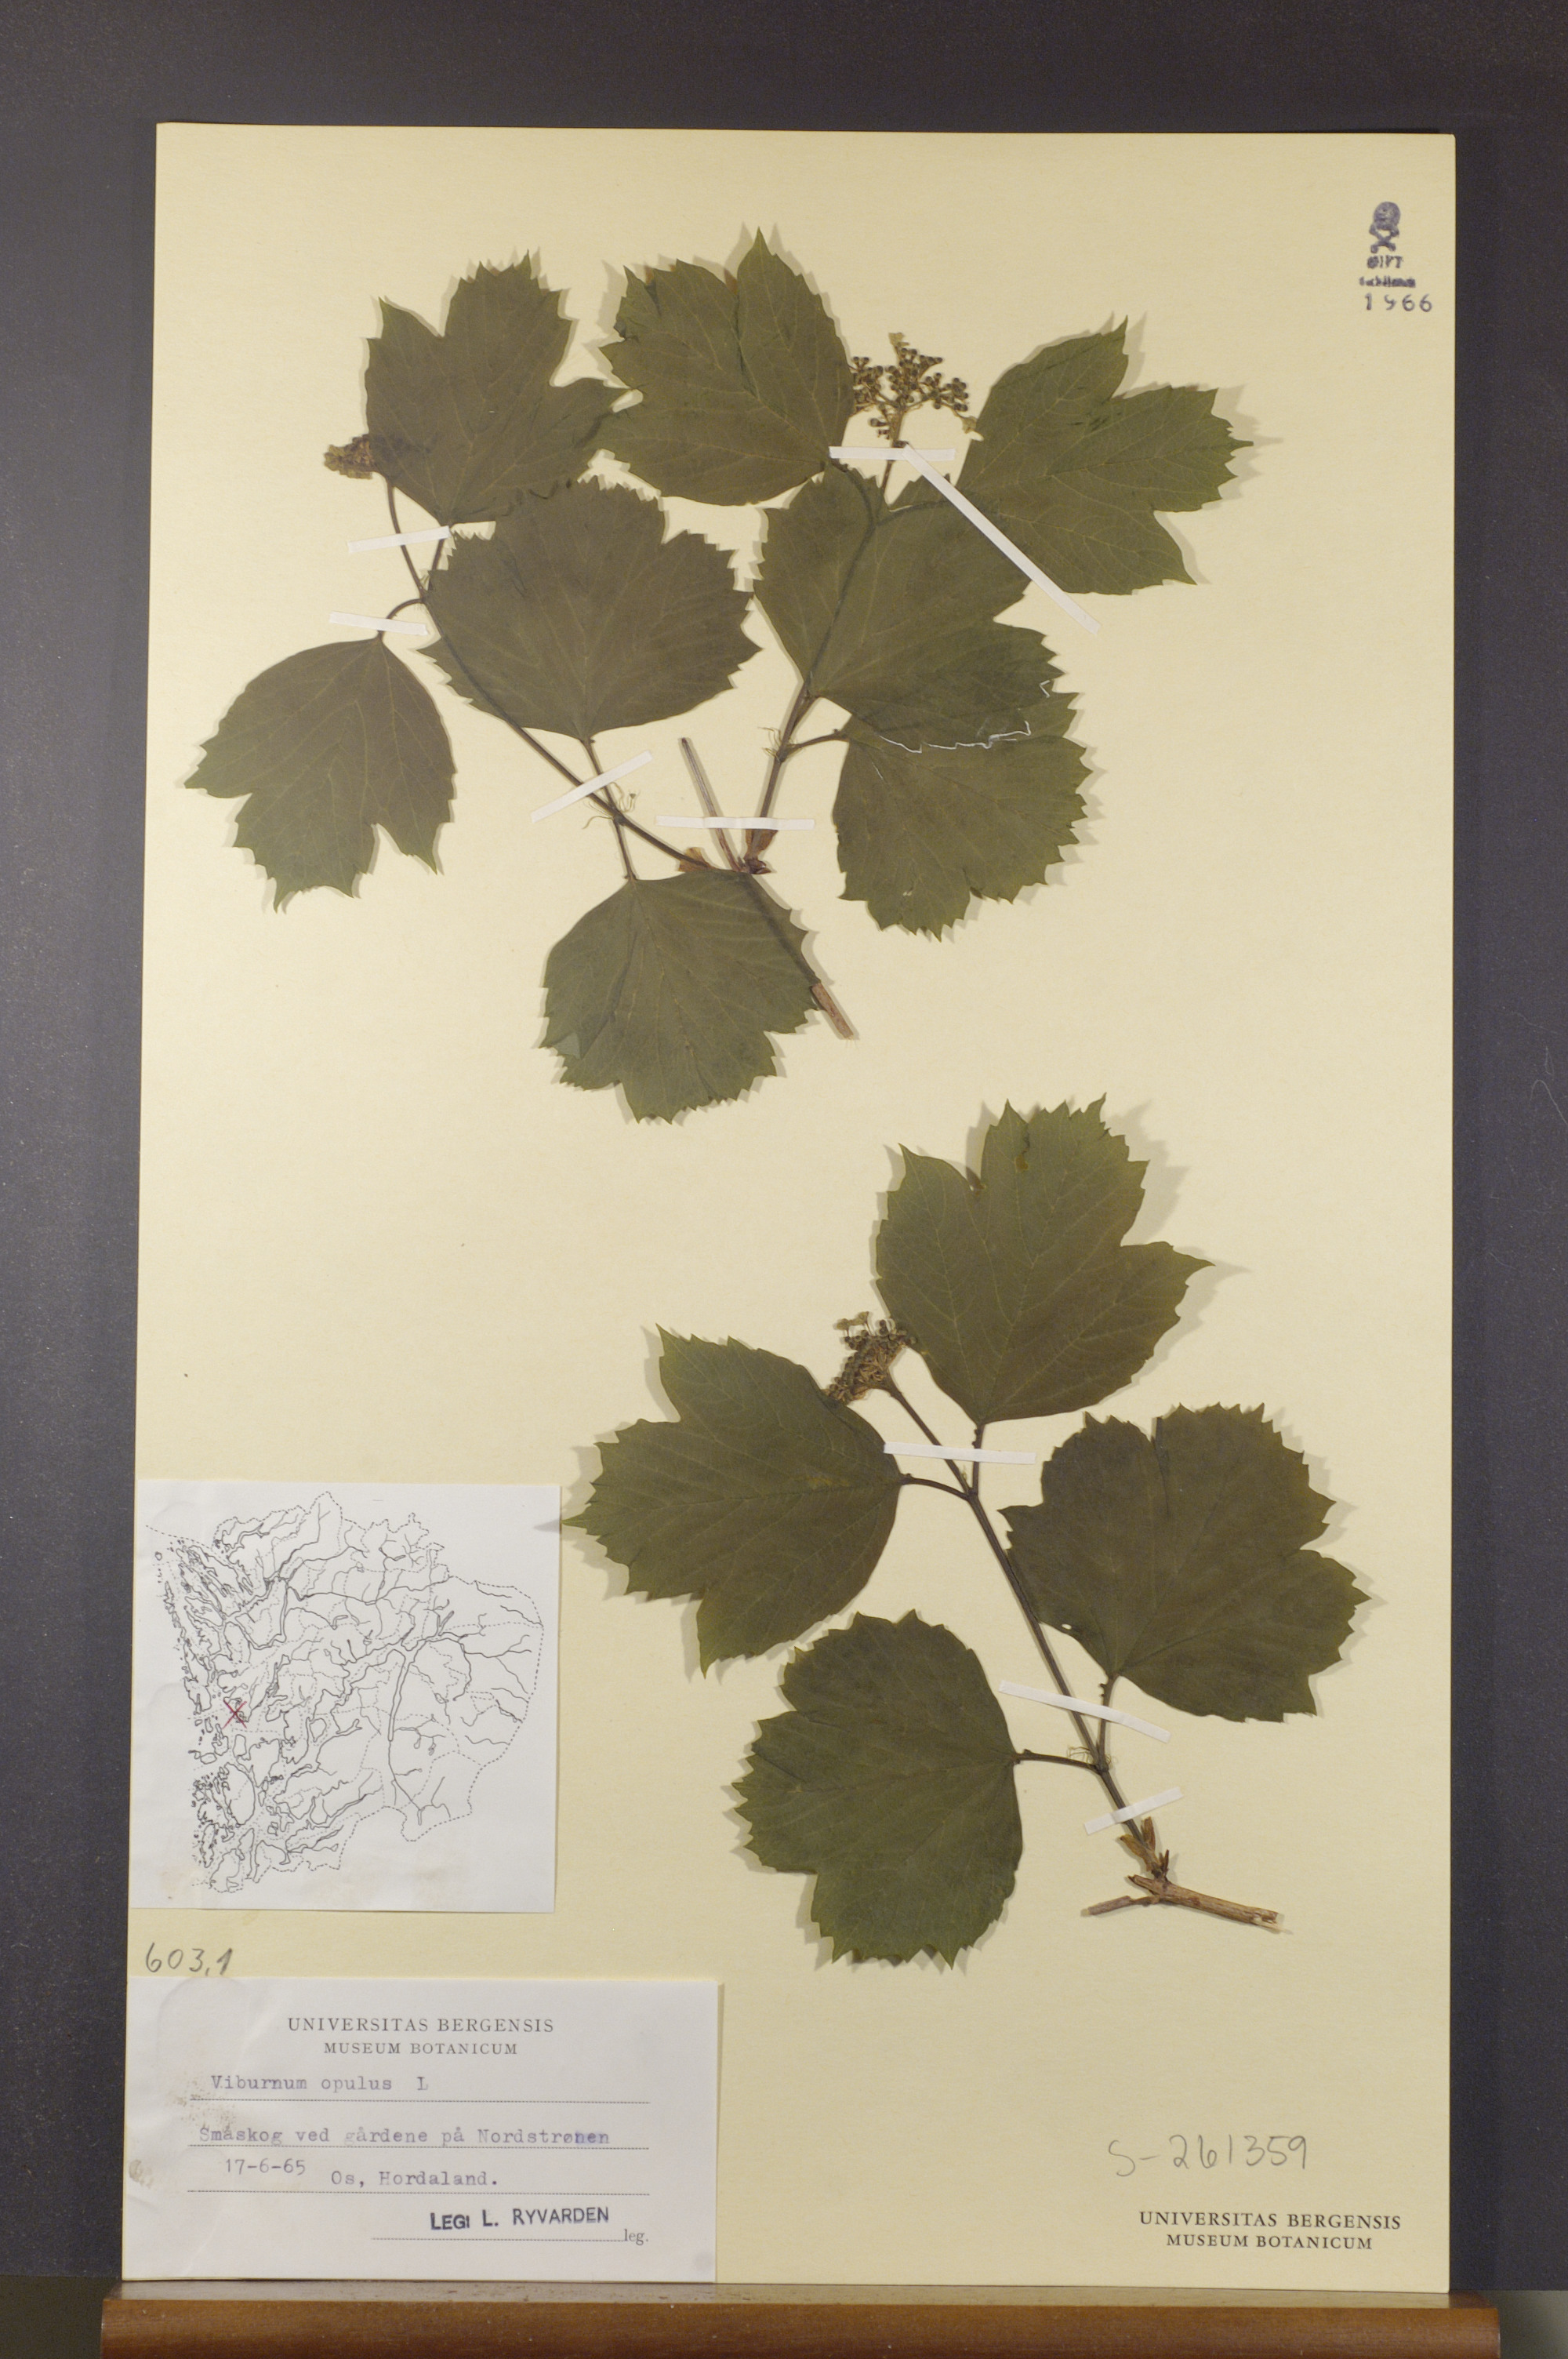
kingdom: Plantae
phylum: Tracheophyta
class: Magnoliopsida
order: Dipsacales
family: Viburnaceae
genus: Viburnum
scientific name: Viburnum opulus
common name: Guelder-rose
